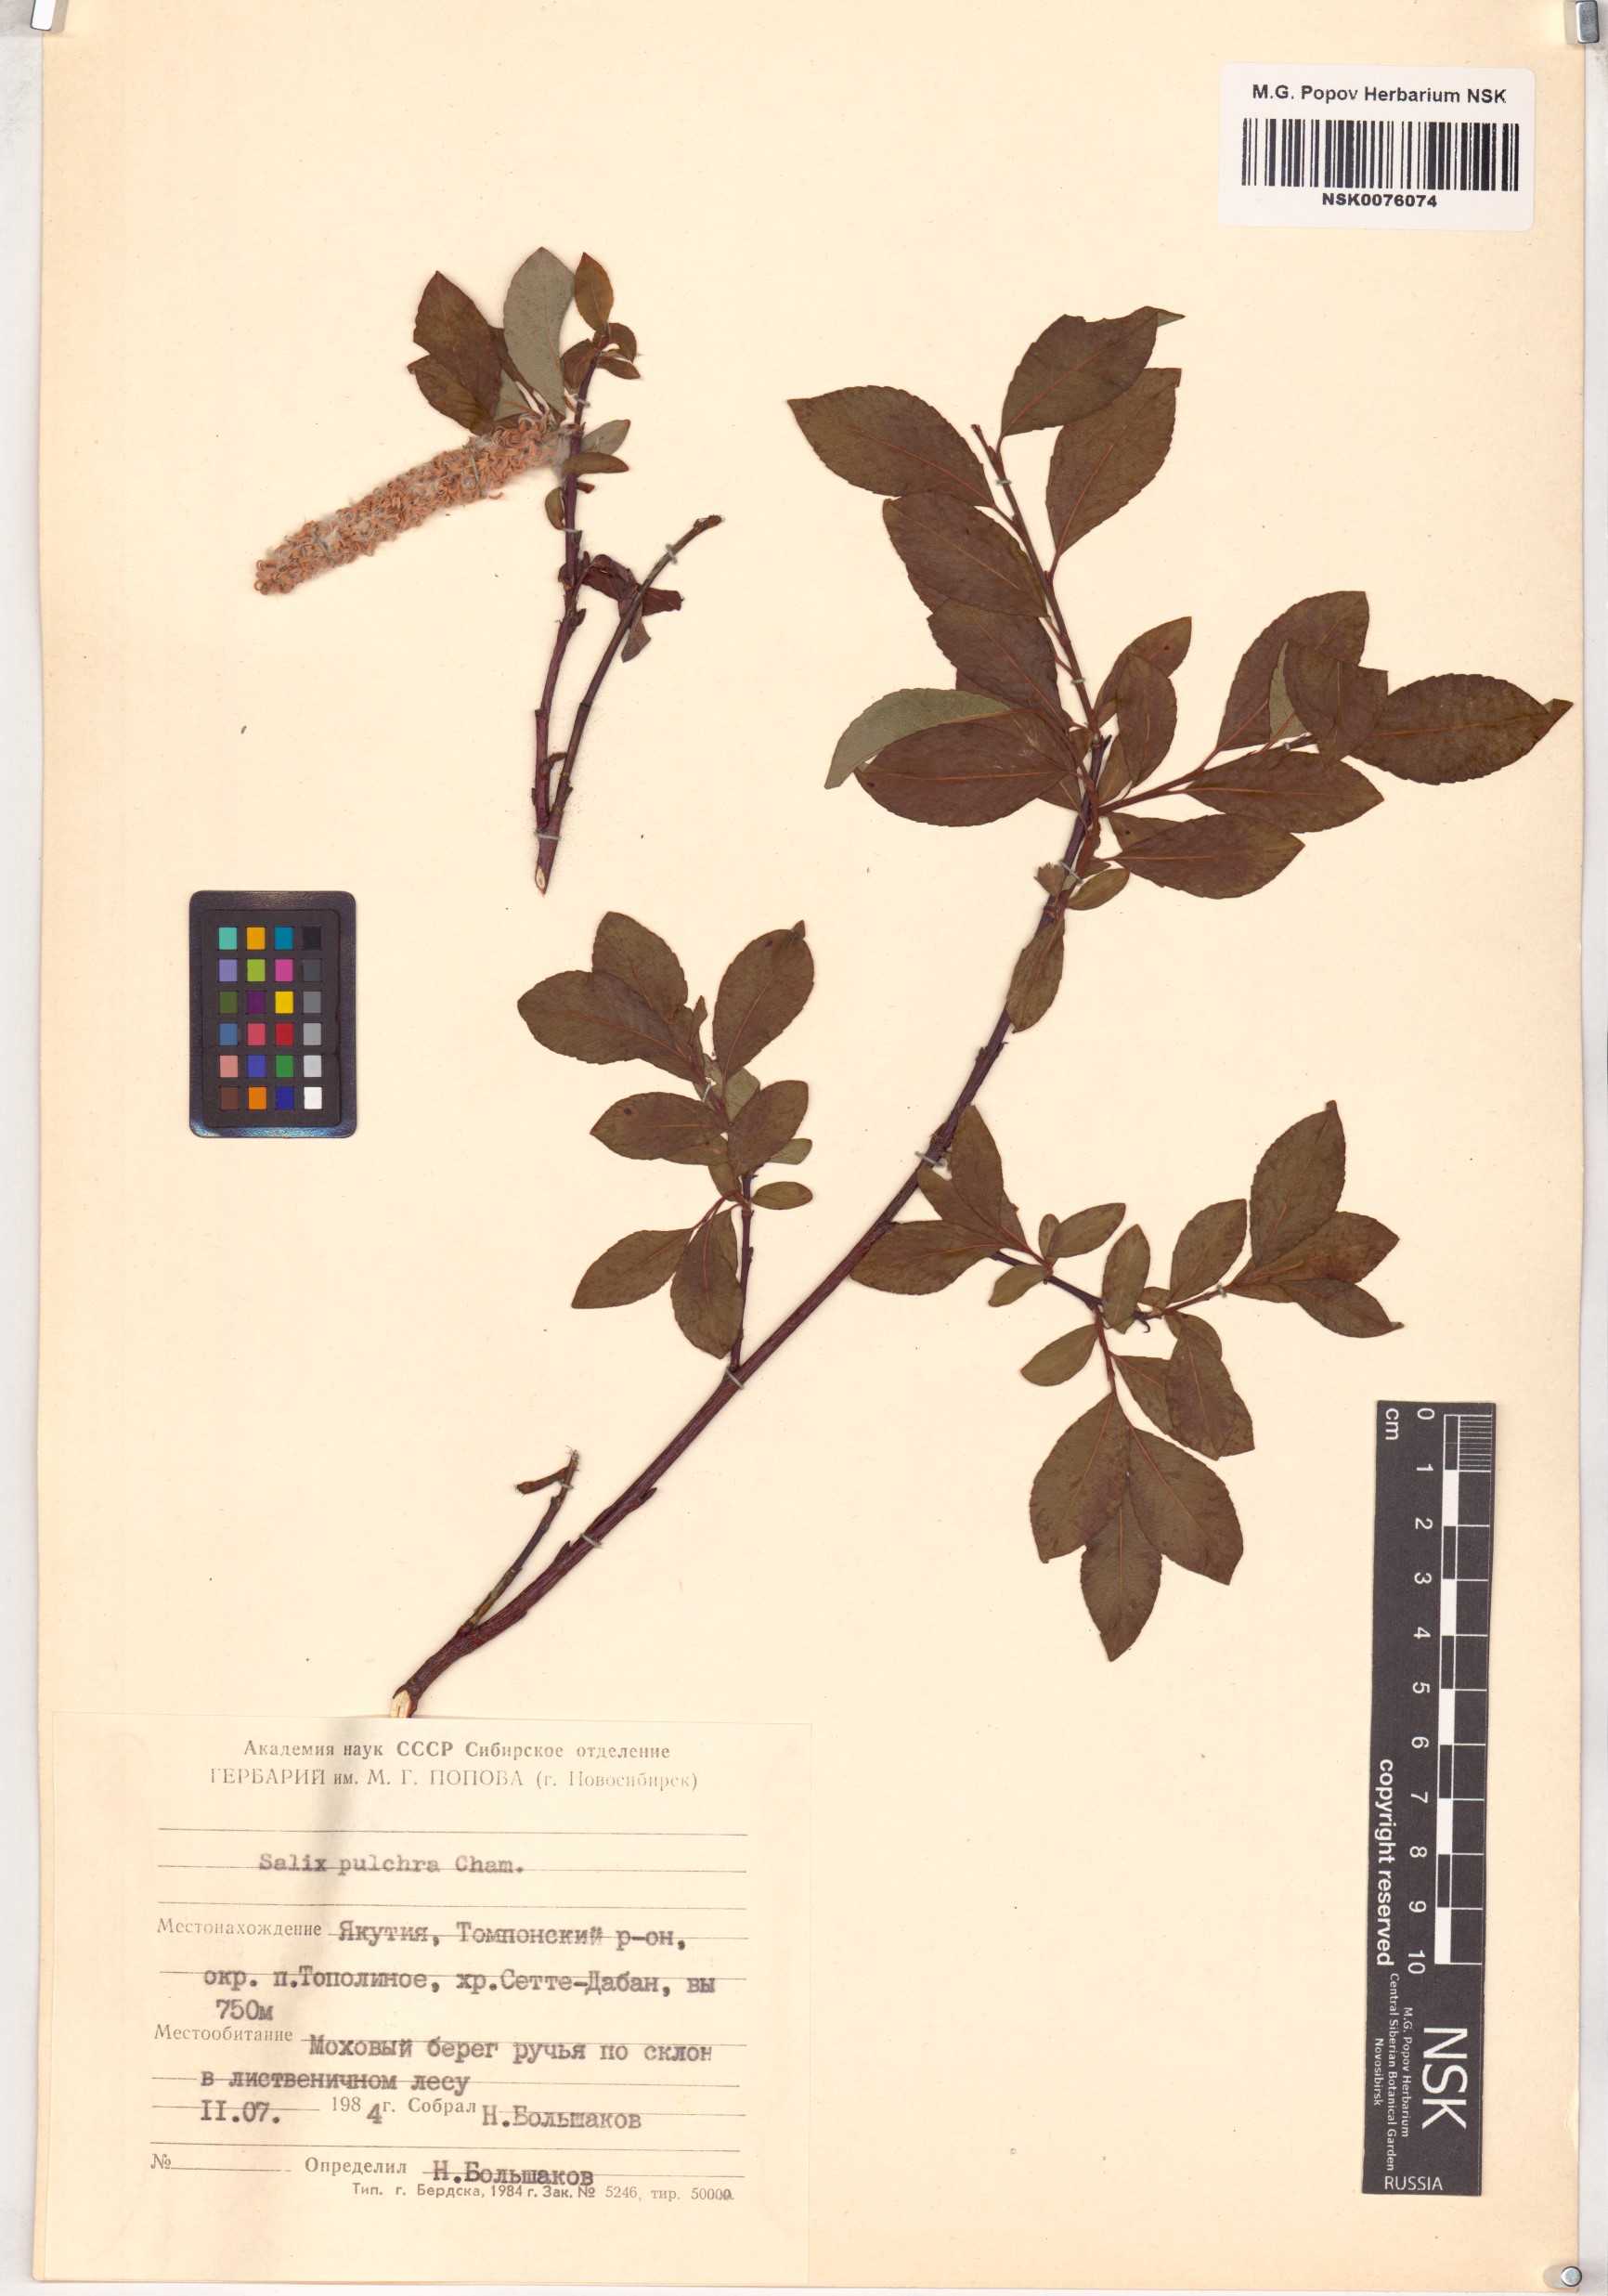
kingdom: Plantae
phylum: Tracheophyta
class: Magnoliopsida
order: Malpighiales
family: Salicaceae
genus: Salix
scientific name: Salix pulchra
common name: Diamond-leaved willow
